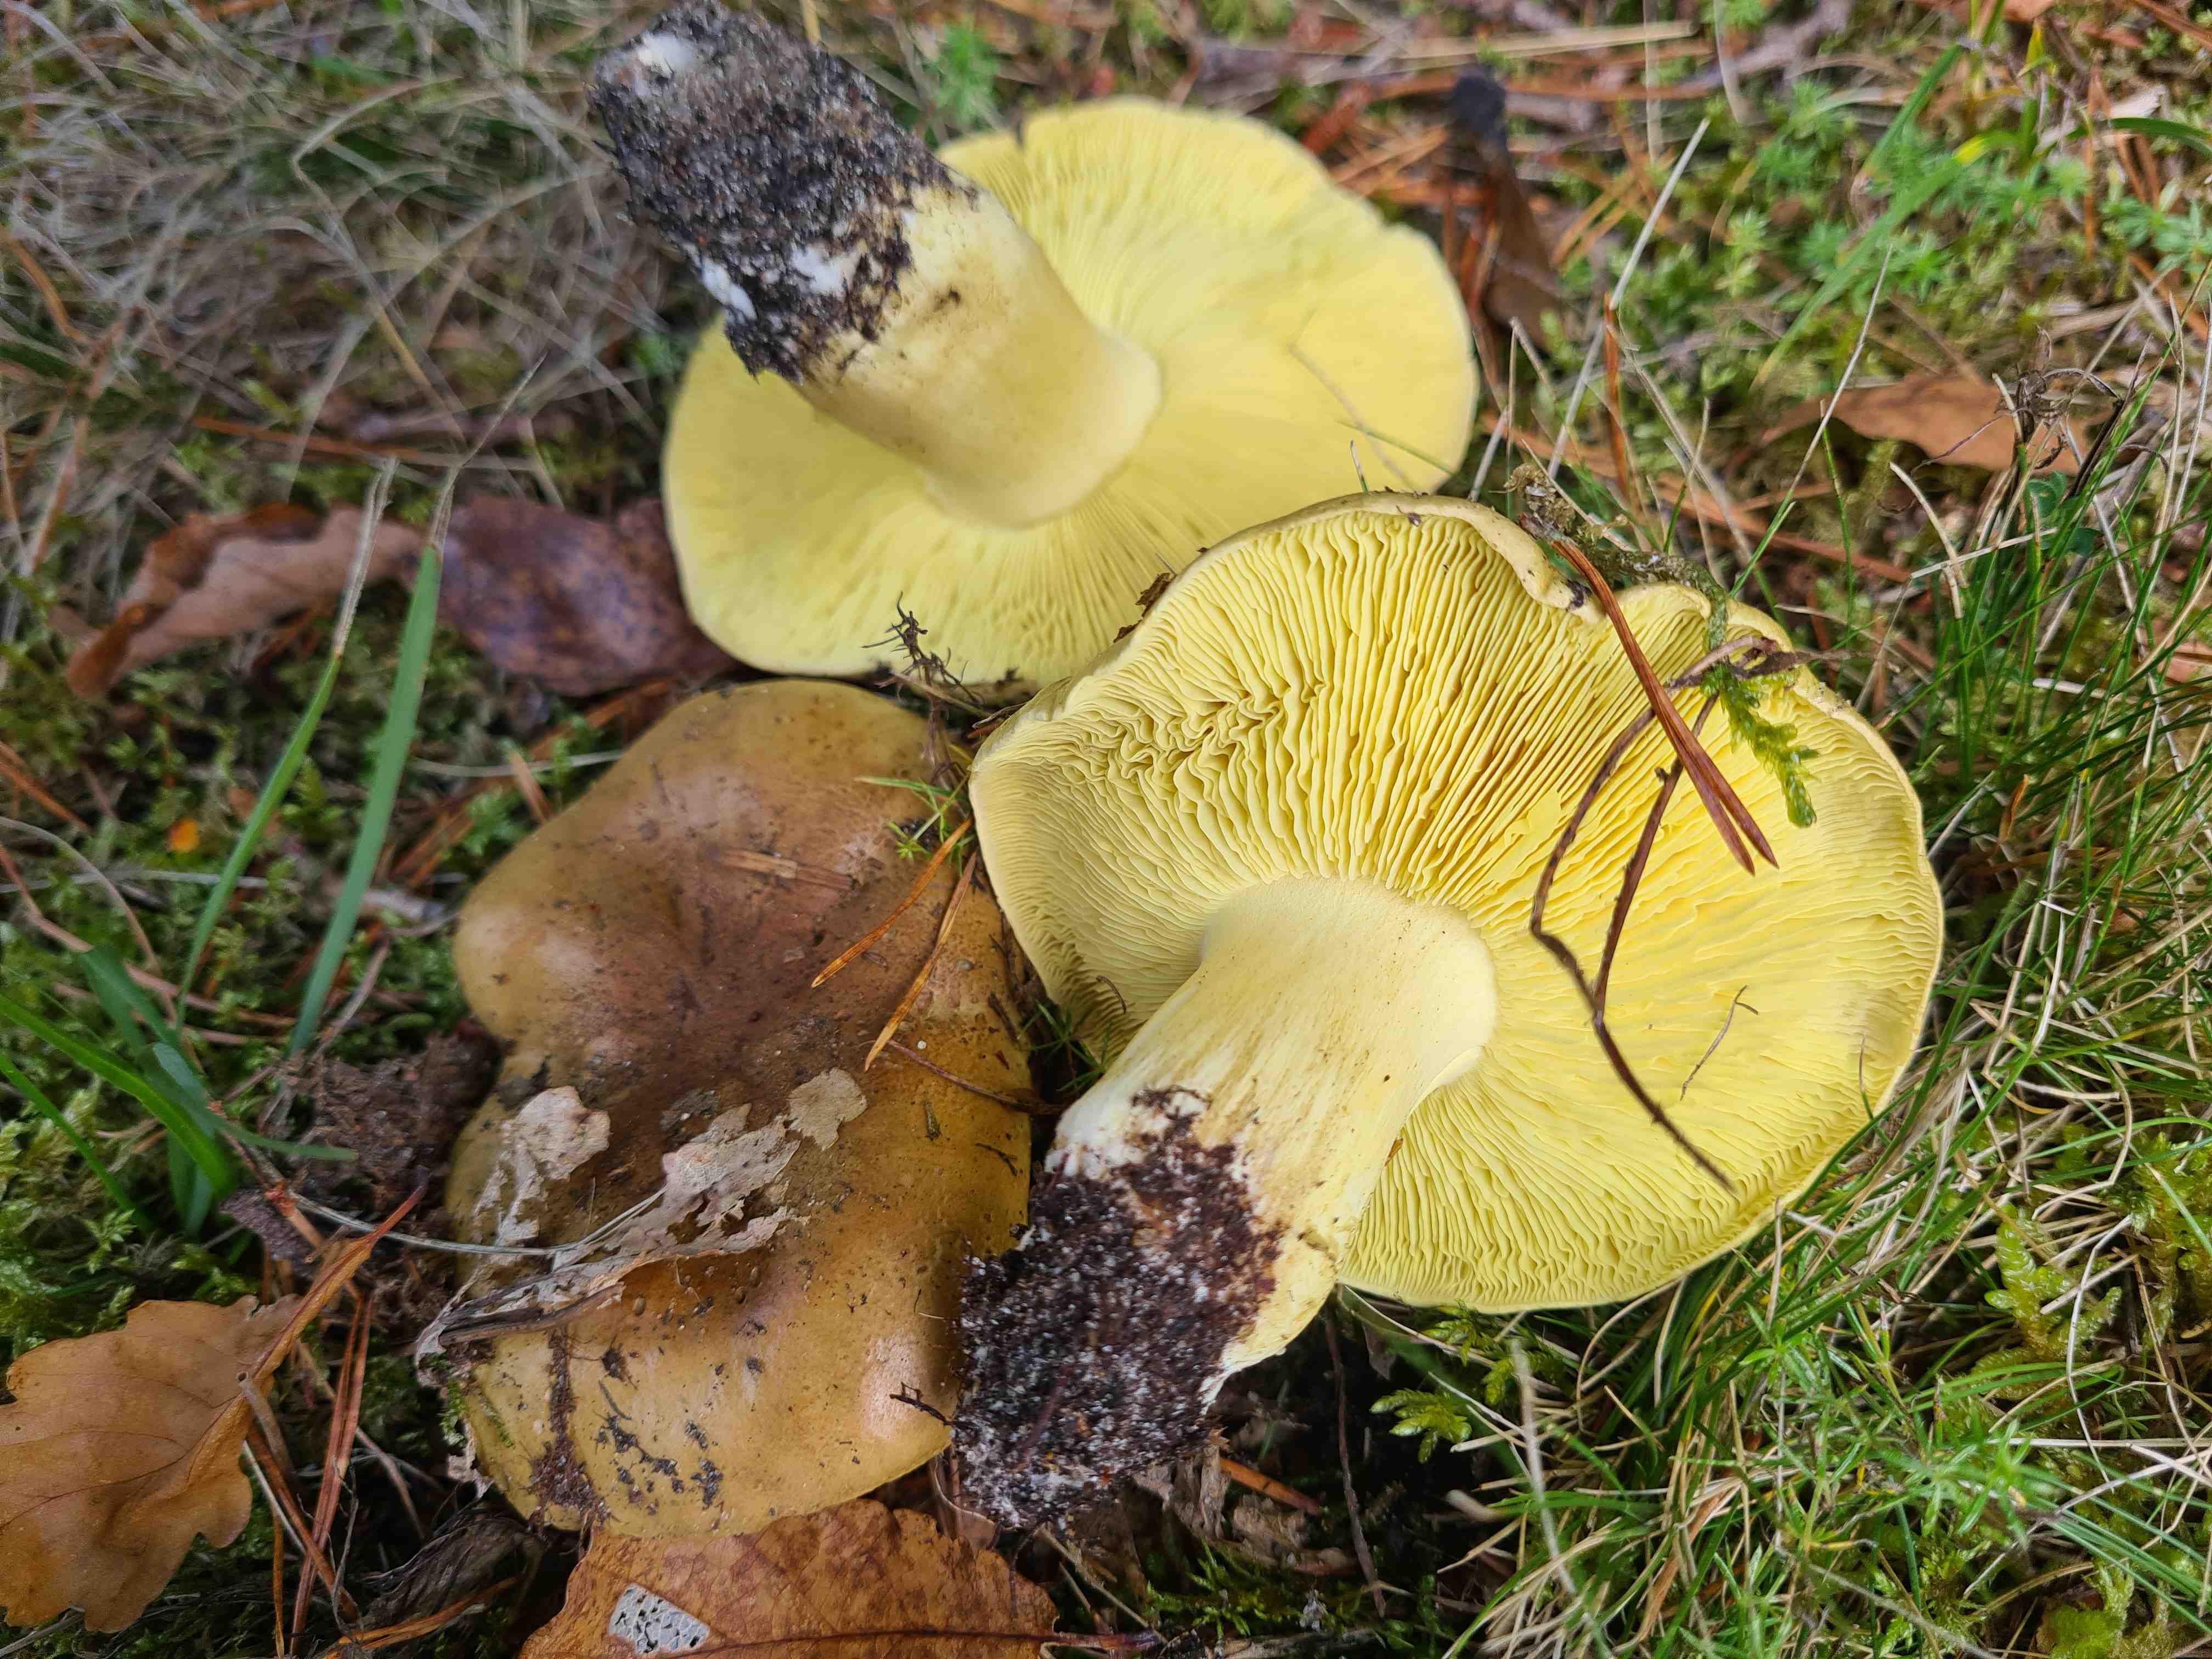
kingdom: Fungi
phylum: Basidiomycota
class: Agaricomycetes
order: Agaricales
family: Tricholomataceae
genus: Tricholoma
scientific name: Tricholoma equestre
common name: ægte ridderhat
